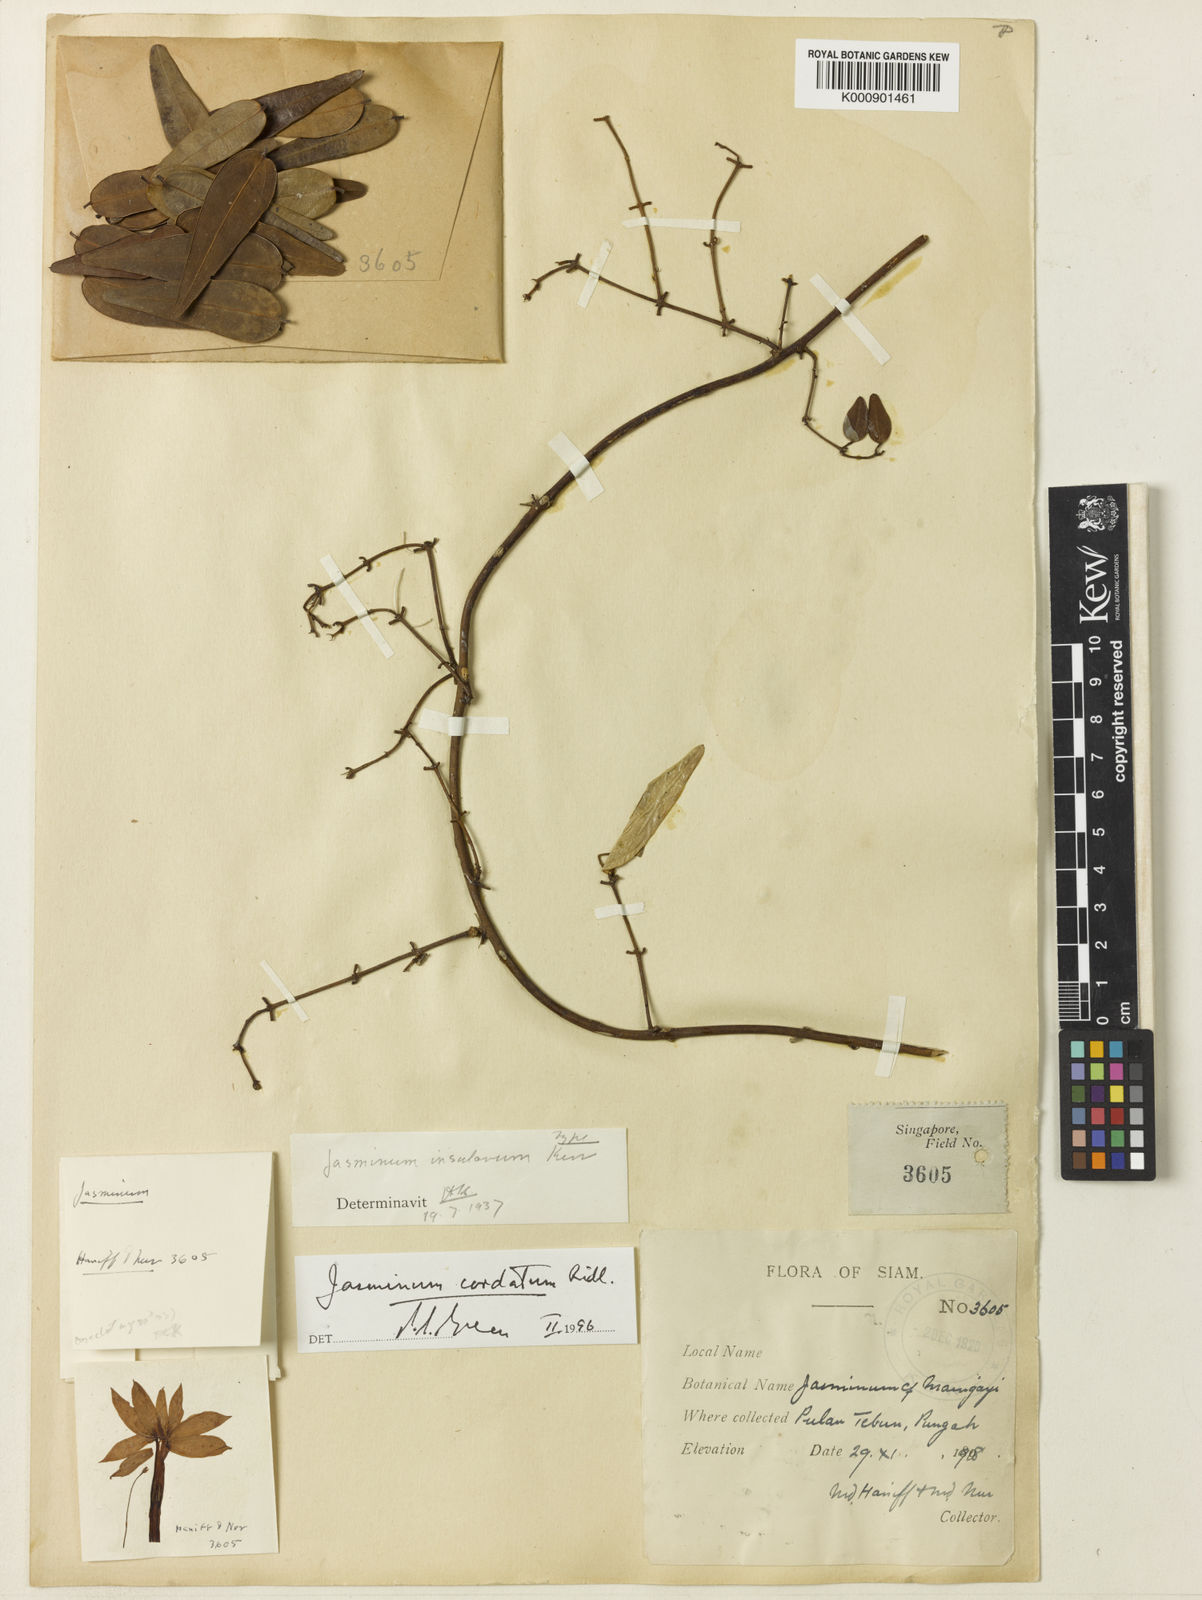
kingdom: Plantae
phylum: Tracheophyta
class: Magnoliopsida
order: Lamiales
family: Oleaceae
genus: Jasminum
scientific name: Jasminum cordatum
